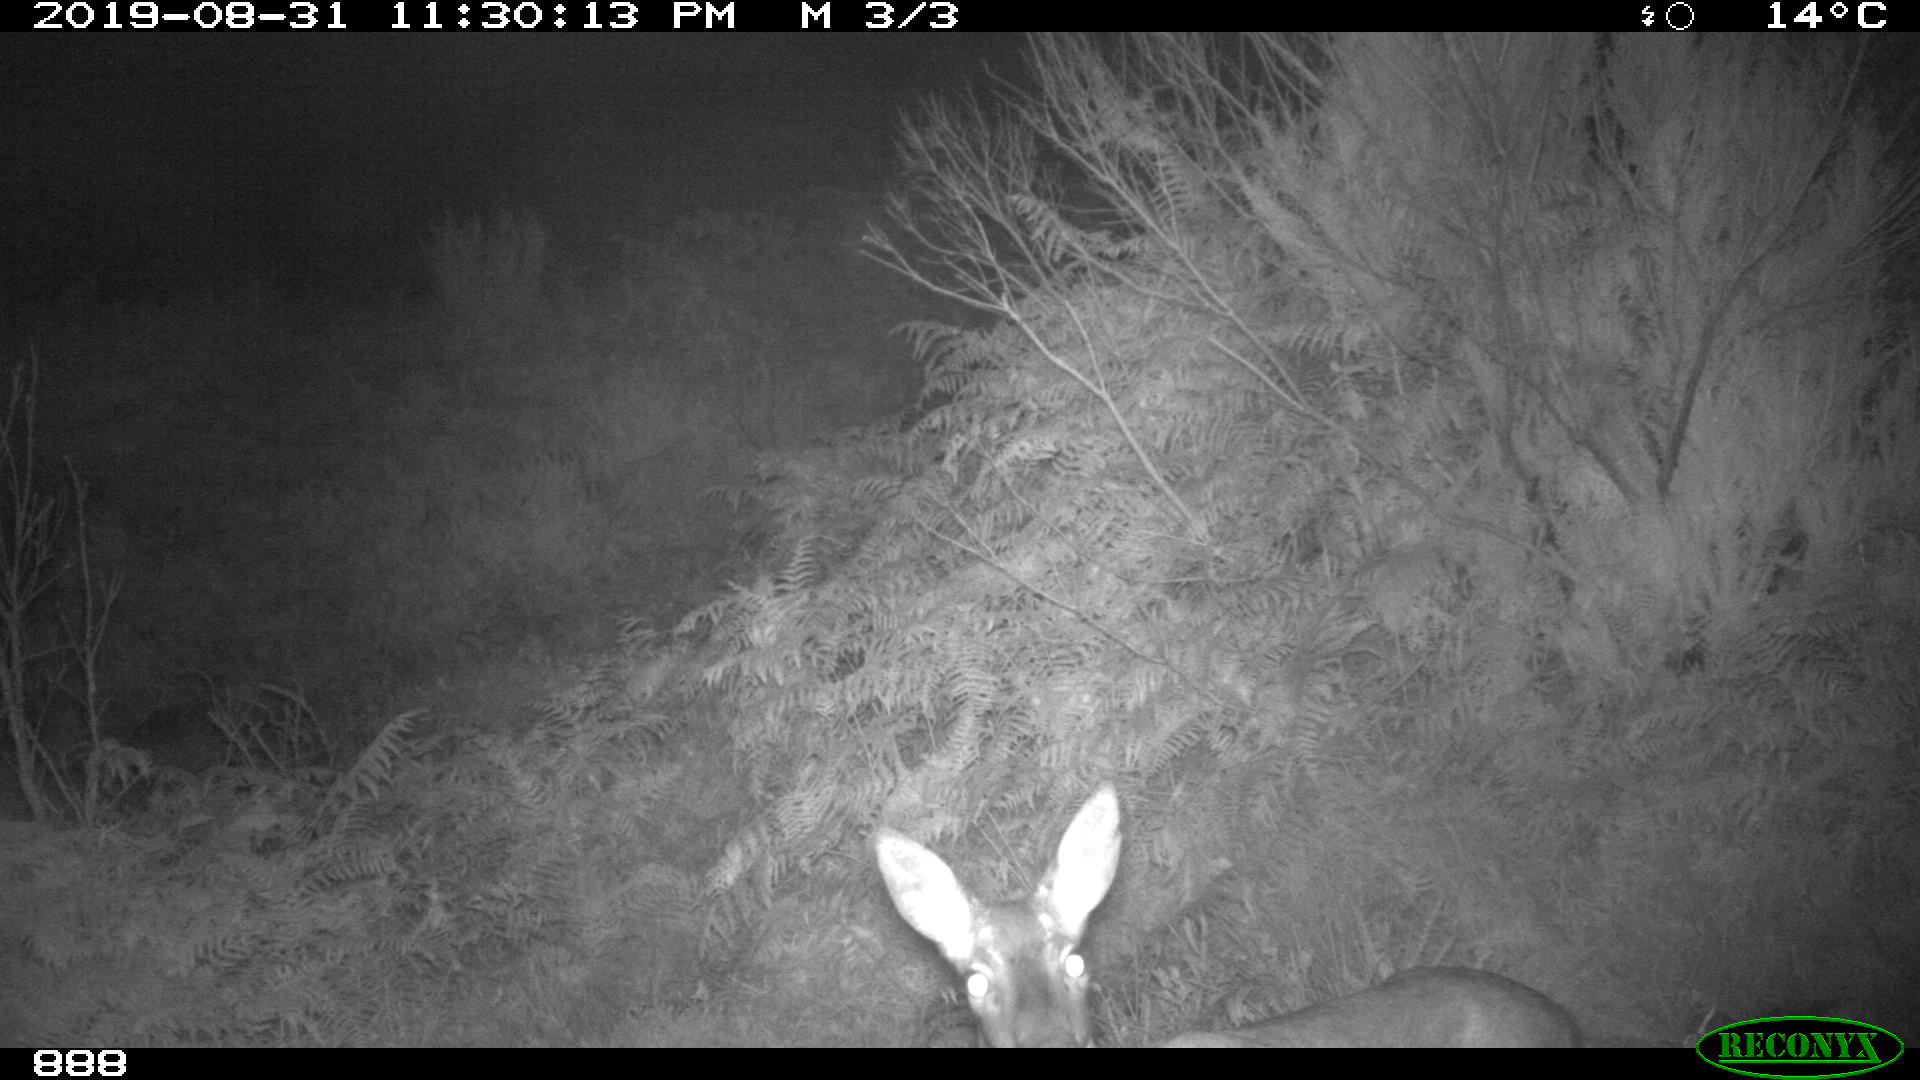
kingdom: Animalia
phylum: Chordata
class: Mammalia
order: Artiodactyla
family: Cervidae
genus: Capreolus
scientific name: Capreolus capreolus
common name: Western roe deer
